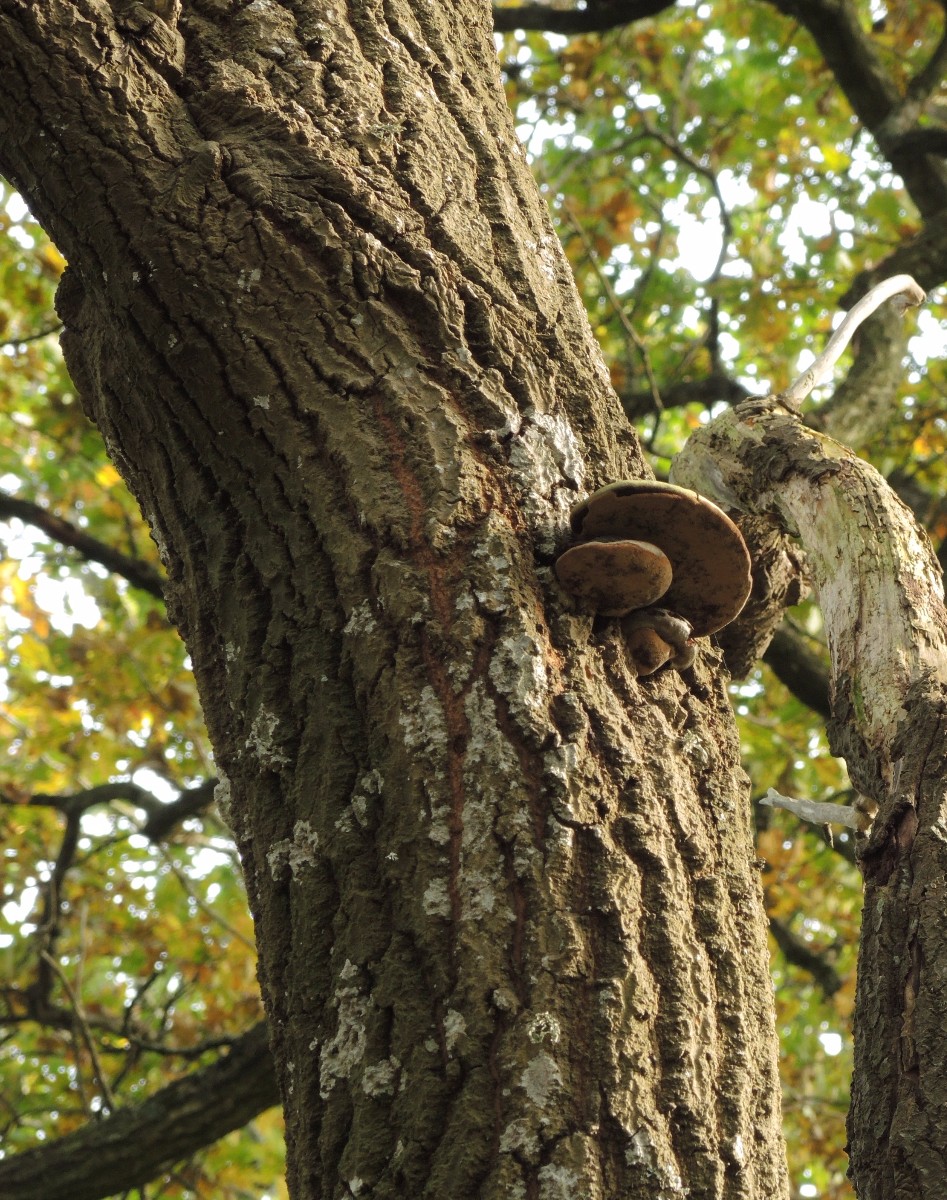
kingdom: Fungi
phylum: Basidiomycota
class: Agaricomycetes
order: Hymenochaetales
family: Hymenochaetaceae
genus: Phellinus
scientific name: Phellinus populicola
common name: poppel-ildporesvamp
